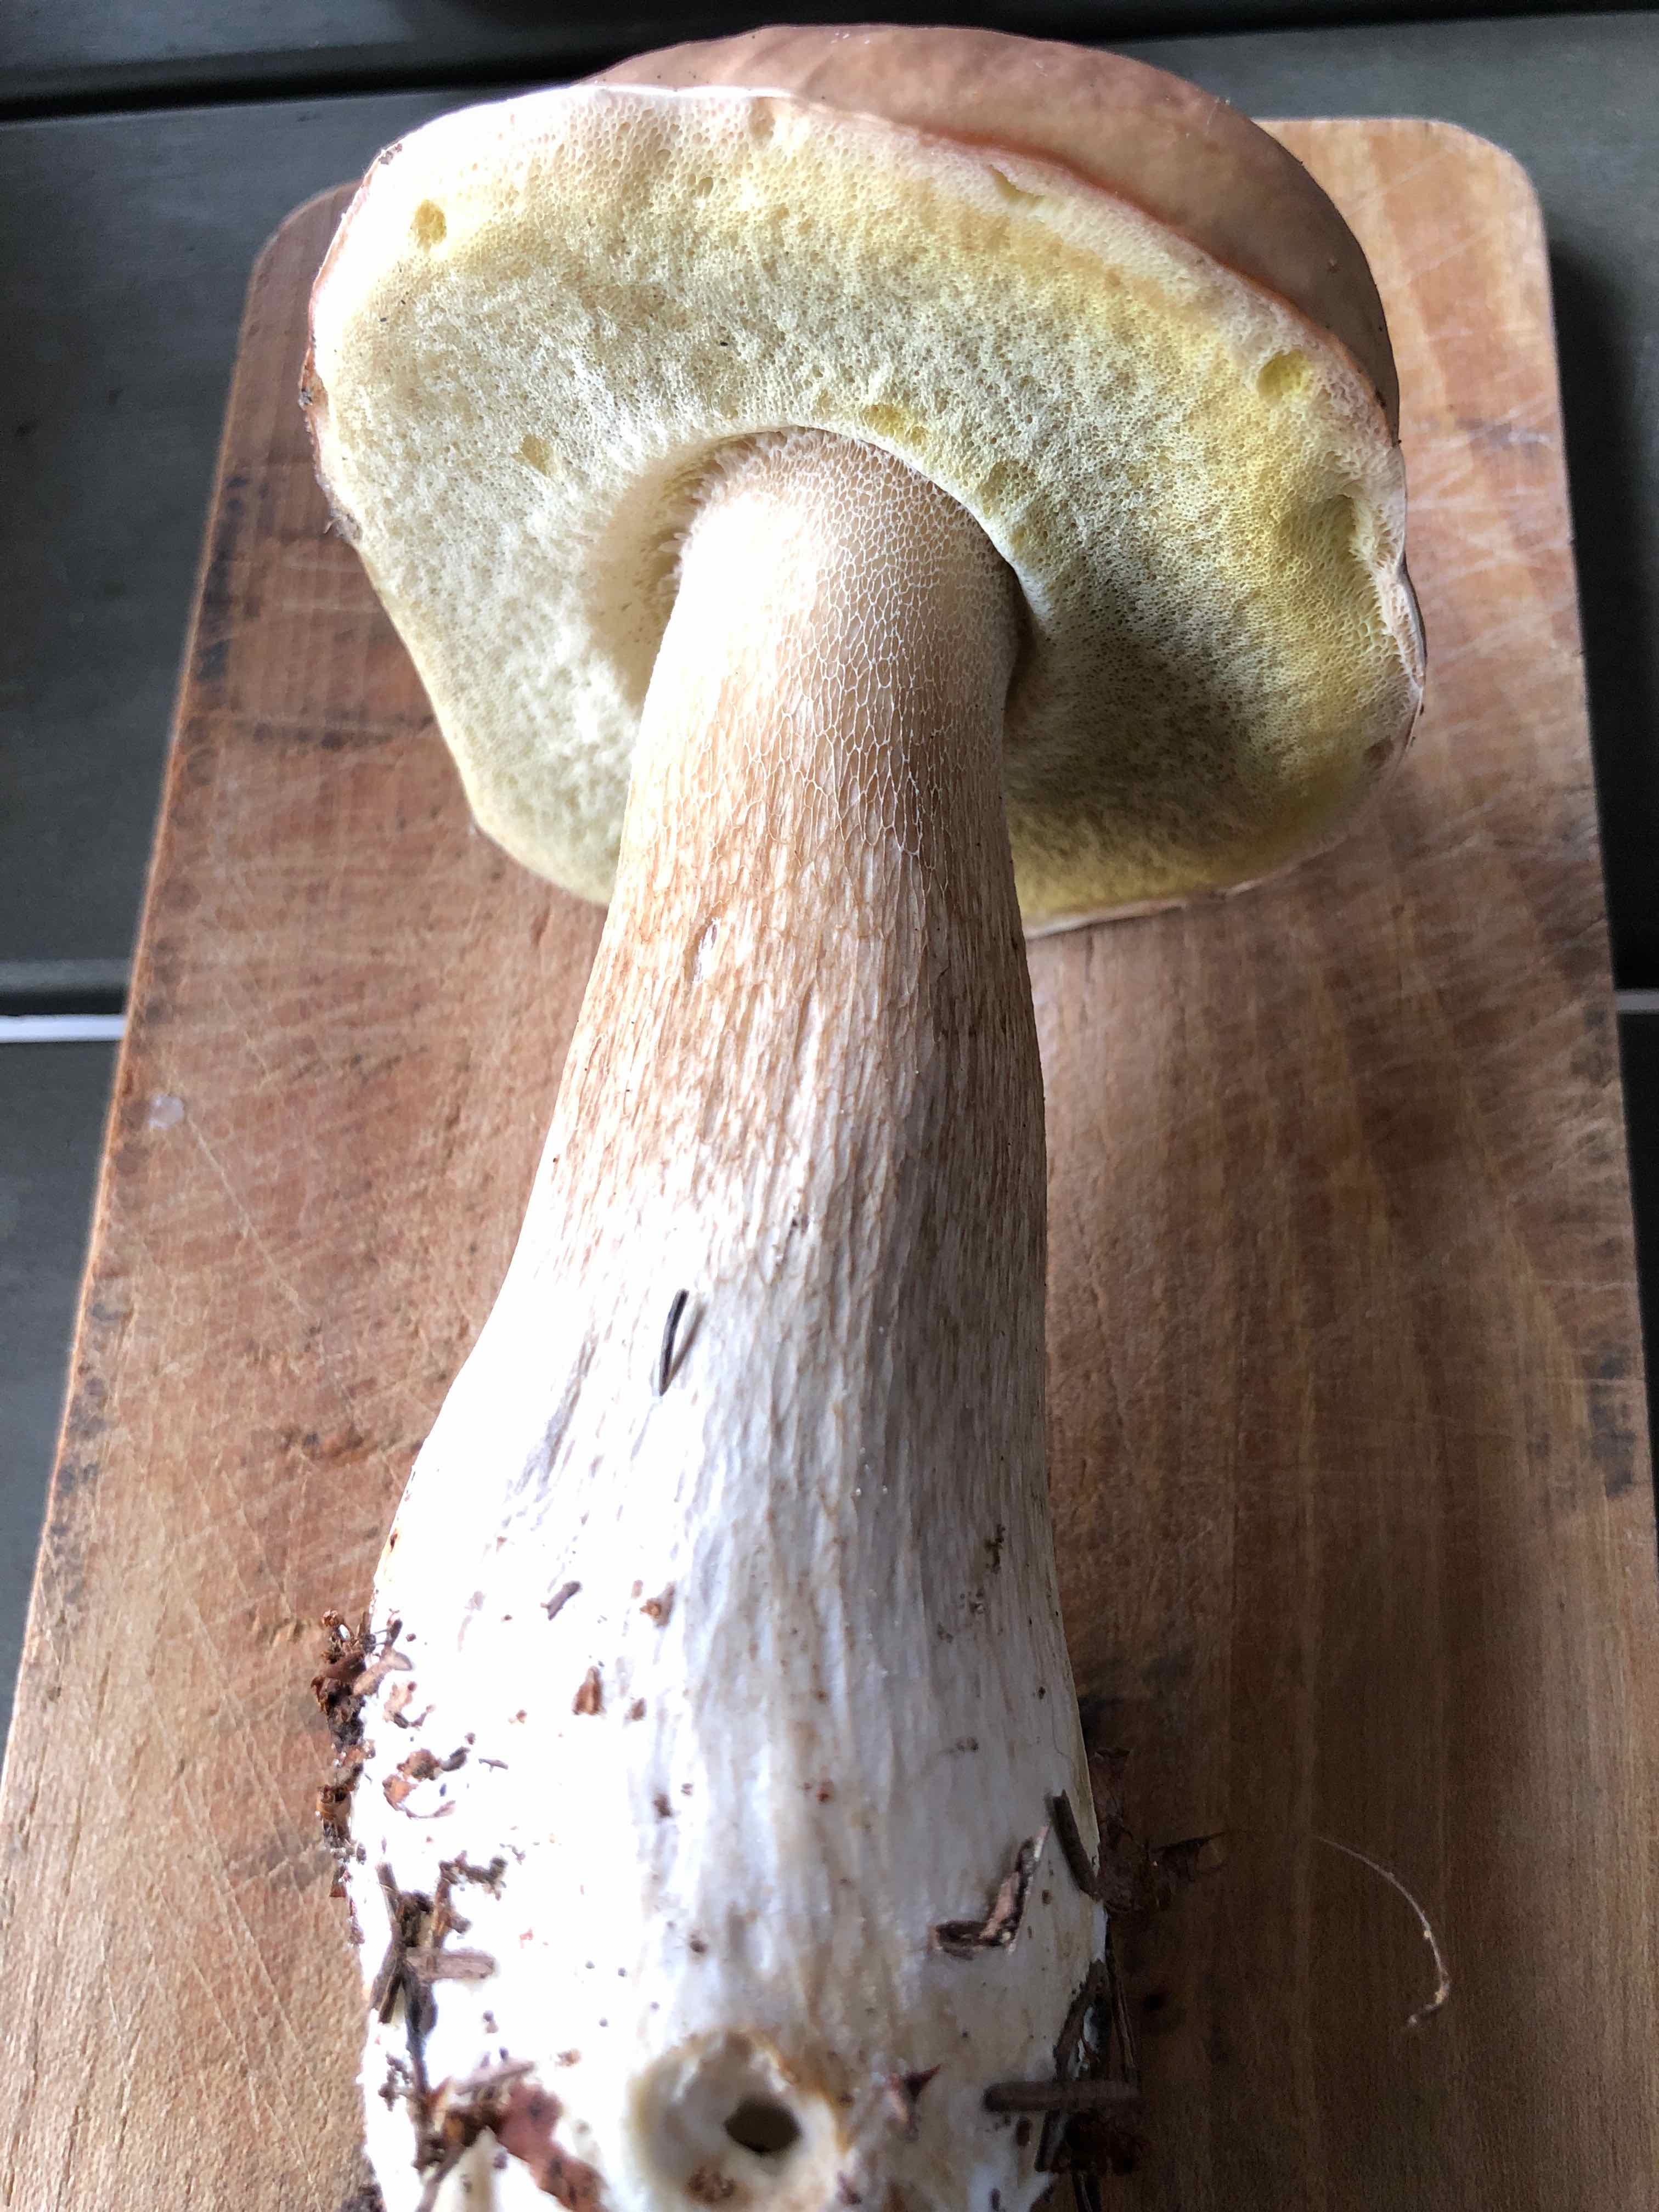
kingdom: Fungi
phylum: Basidiomycota
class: Agaricomycetes
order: Boletales
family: Boletaceae
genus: Boletus
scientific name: Boletus edulis
